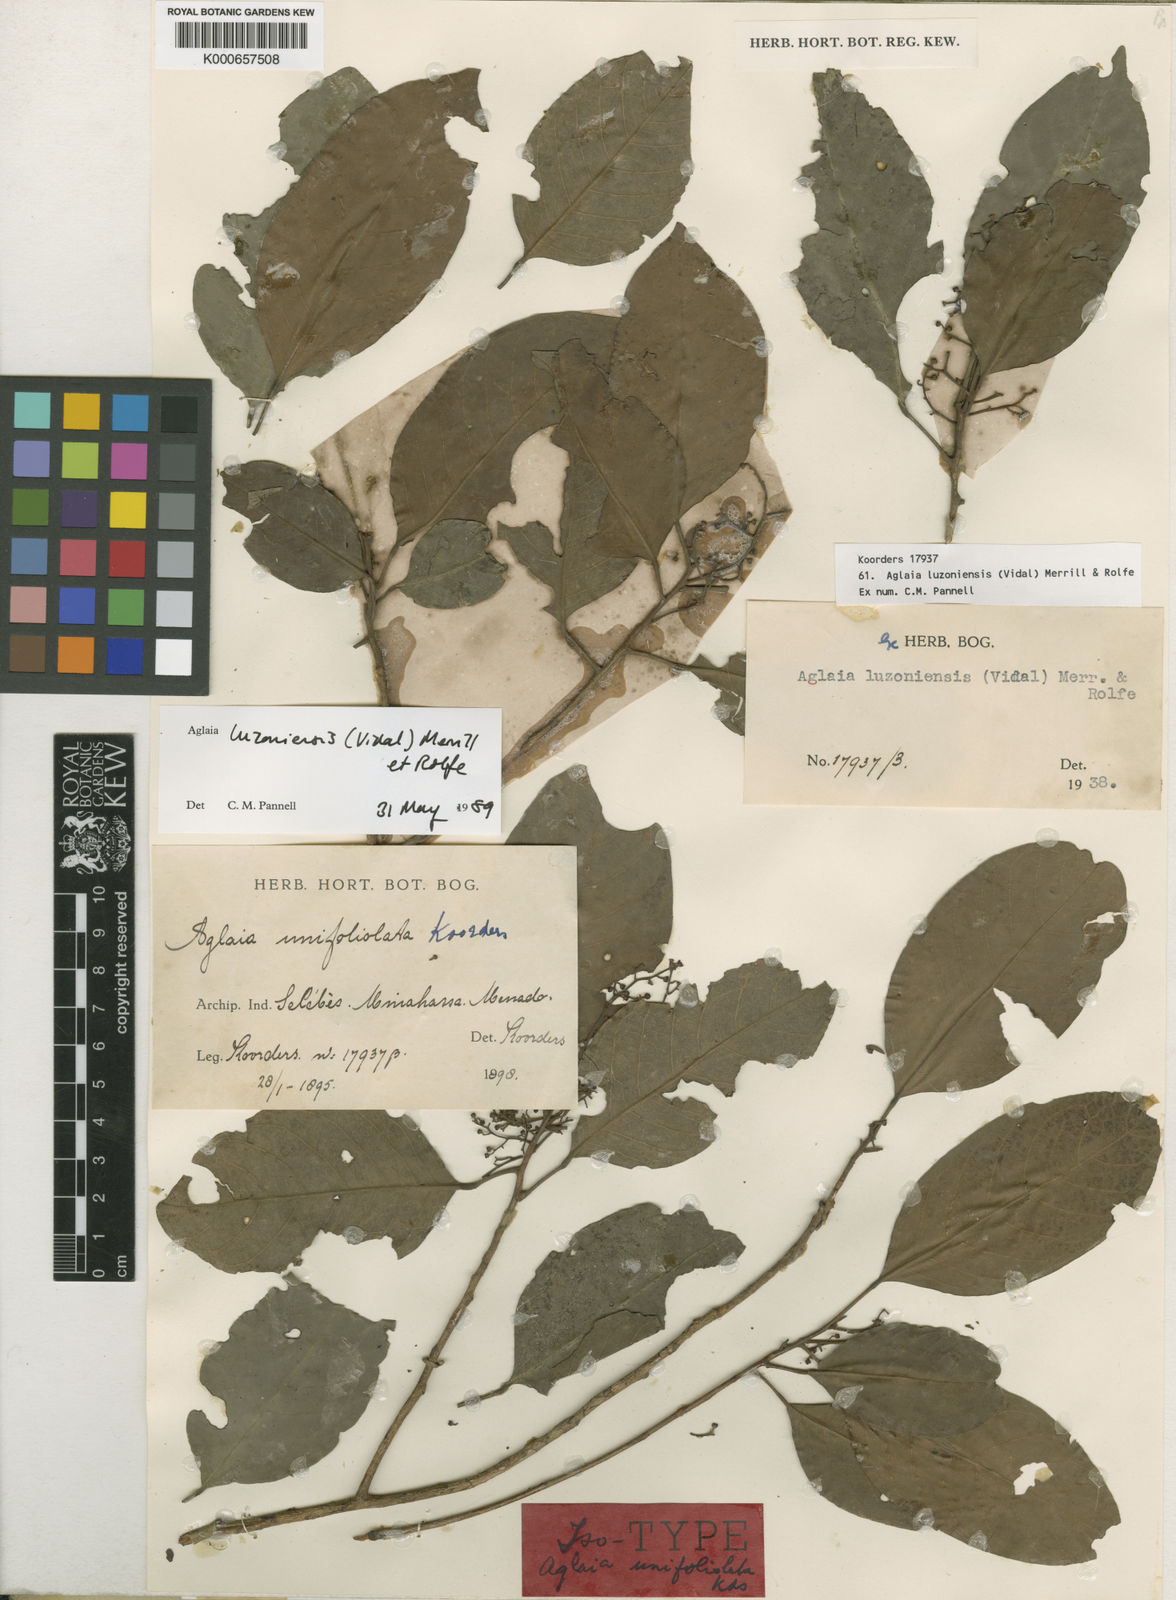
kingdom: Plantae
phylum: Tracheophyta
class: Magnoliopsida
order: Sapindales
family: Meliaceae
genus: Aglaia
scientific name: Aglaia luzoniensis
